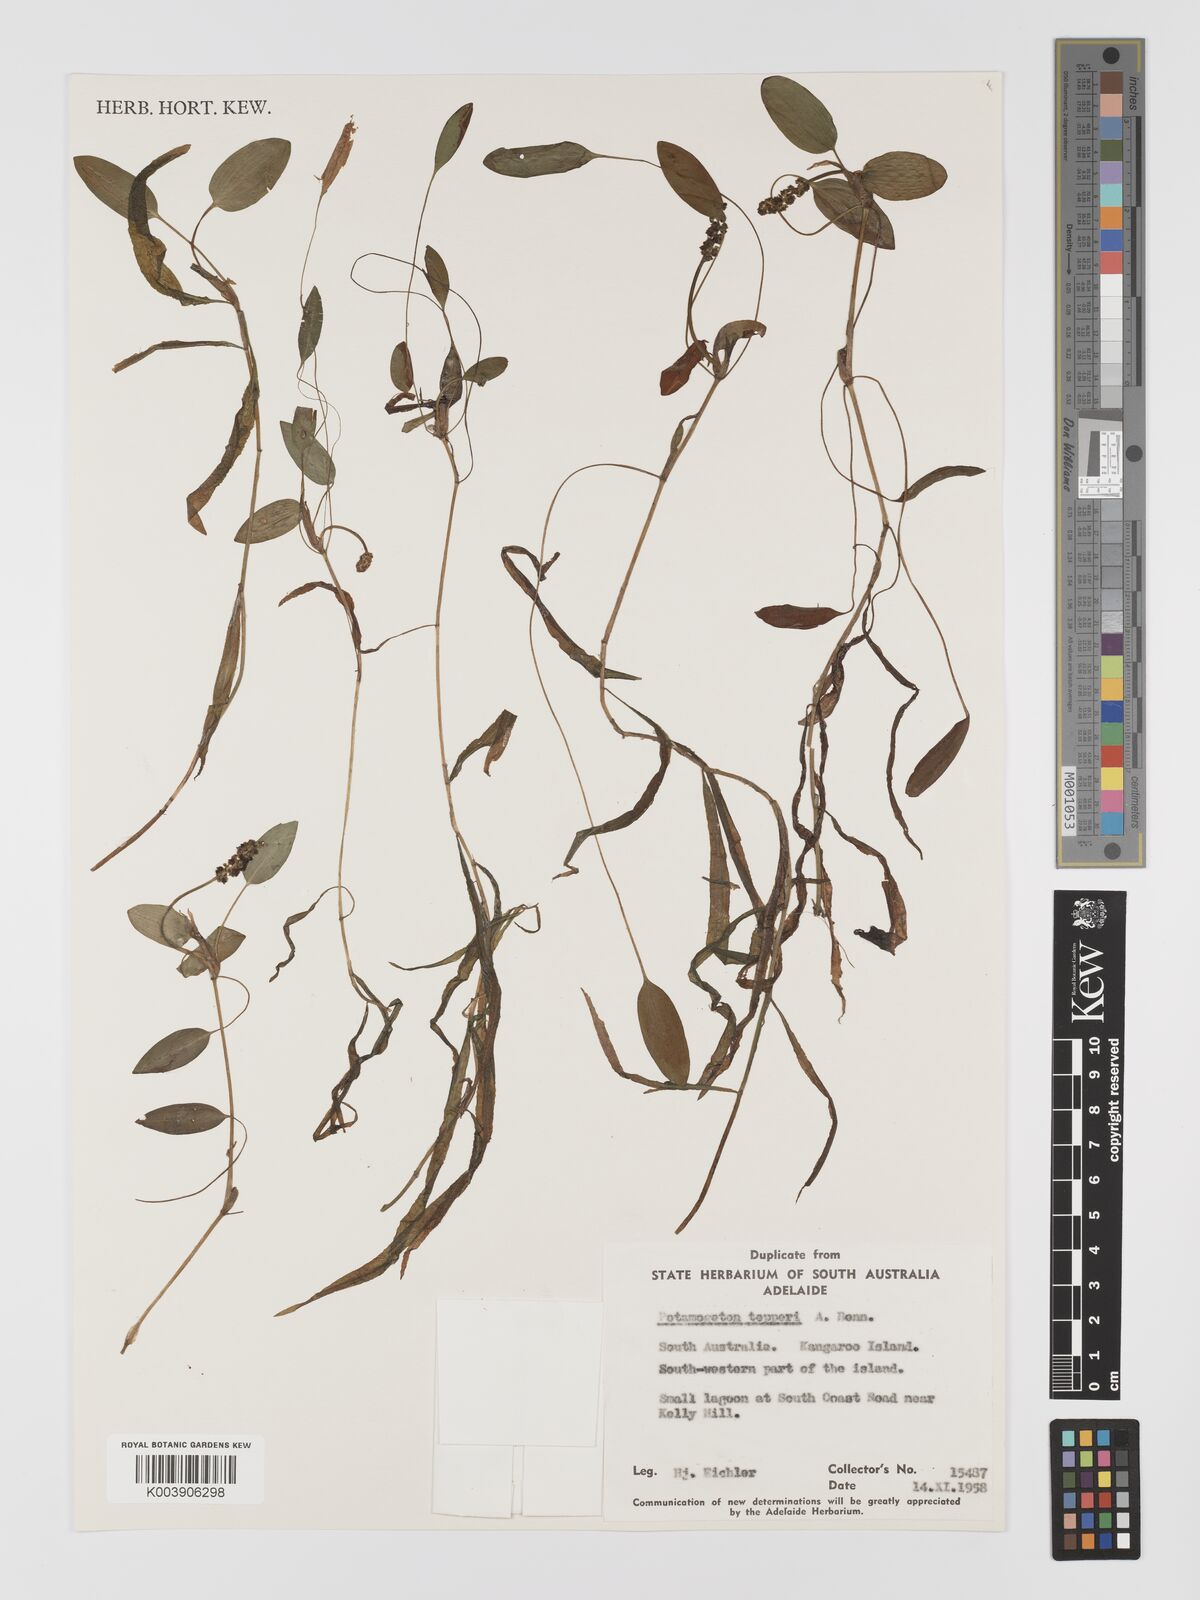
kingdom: Plantae
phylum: Tracheophyta
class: Liliopsida
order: Alismatales
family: Potamogetonaceae
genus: Potamogeton
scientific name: Potamogeton drummondii
